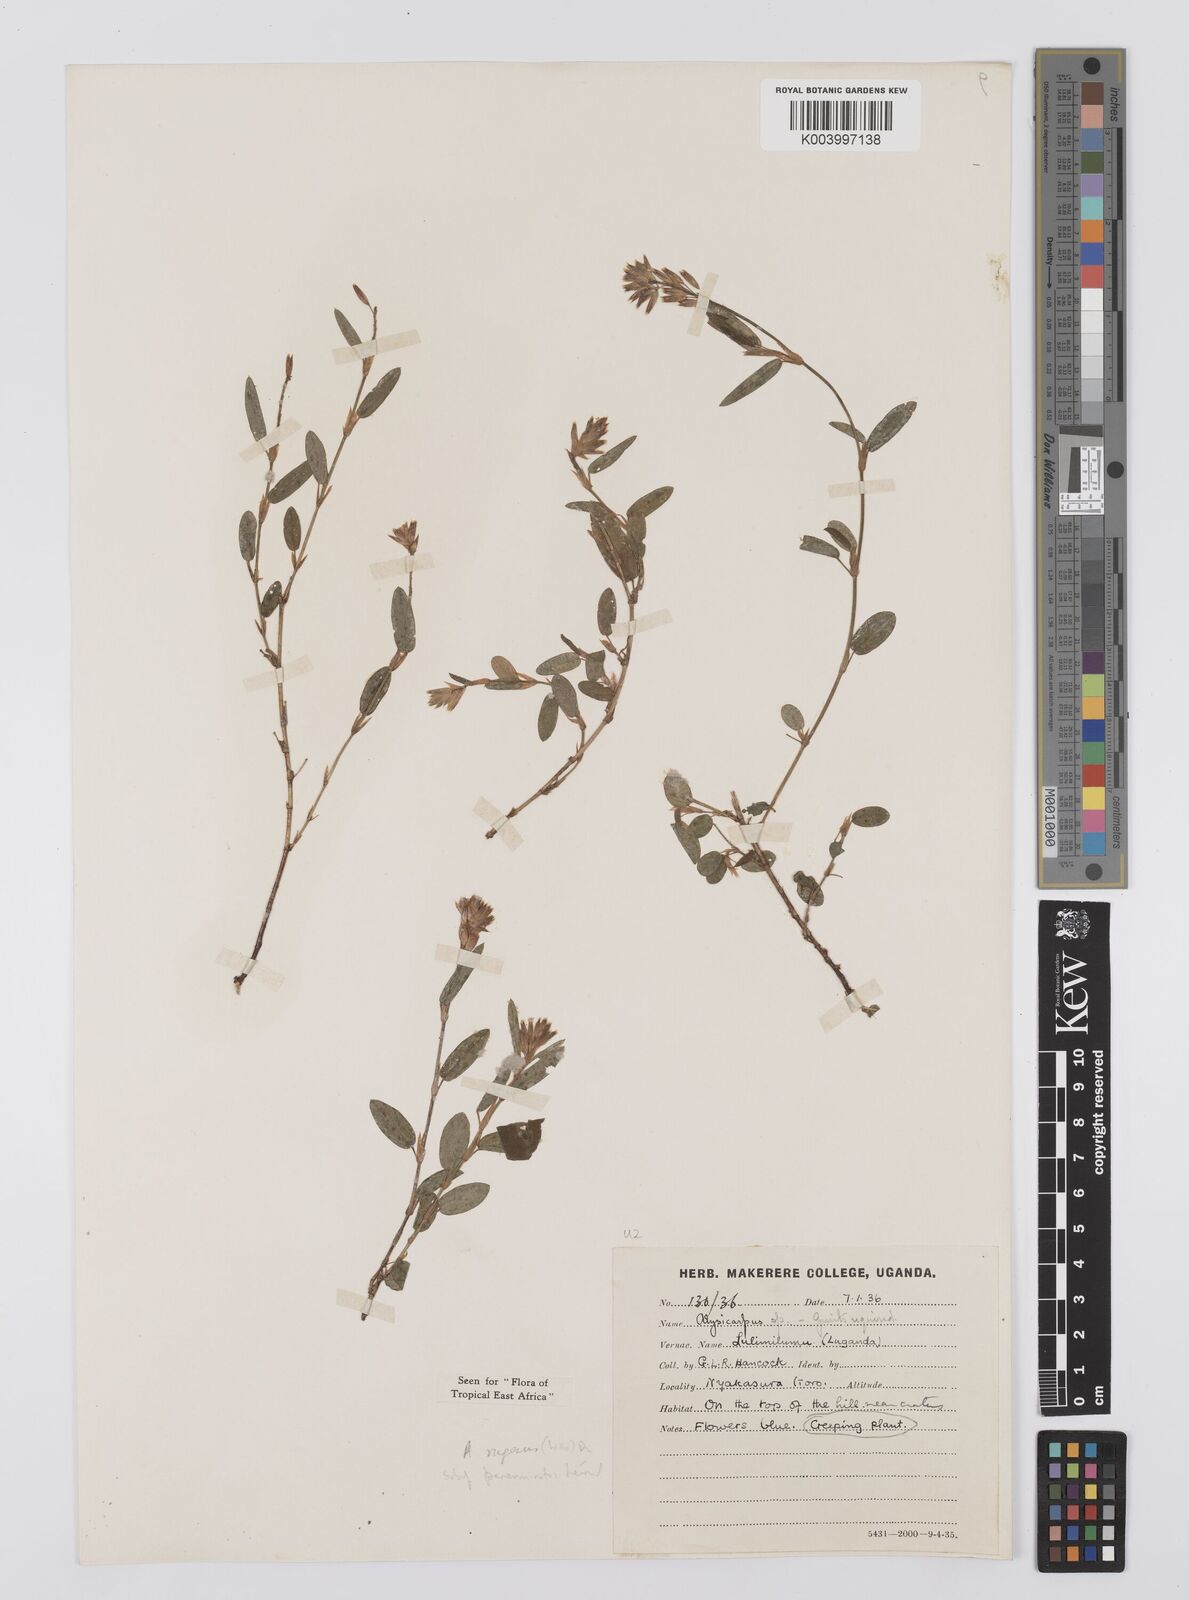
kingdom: Plantae
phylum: Tracheophyta
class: Magnoliopsida
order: Fabales
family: Fabaceae
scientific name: Fabaceae
